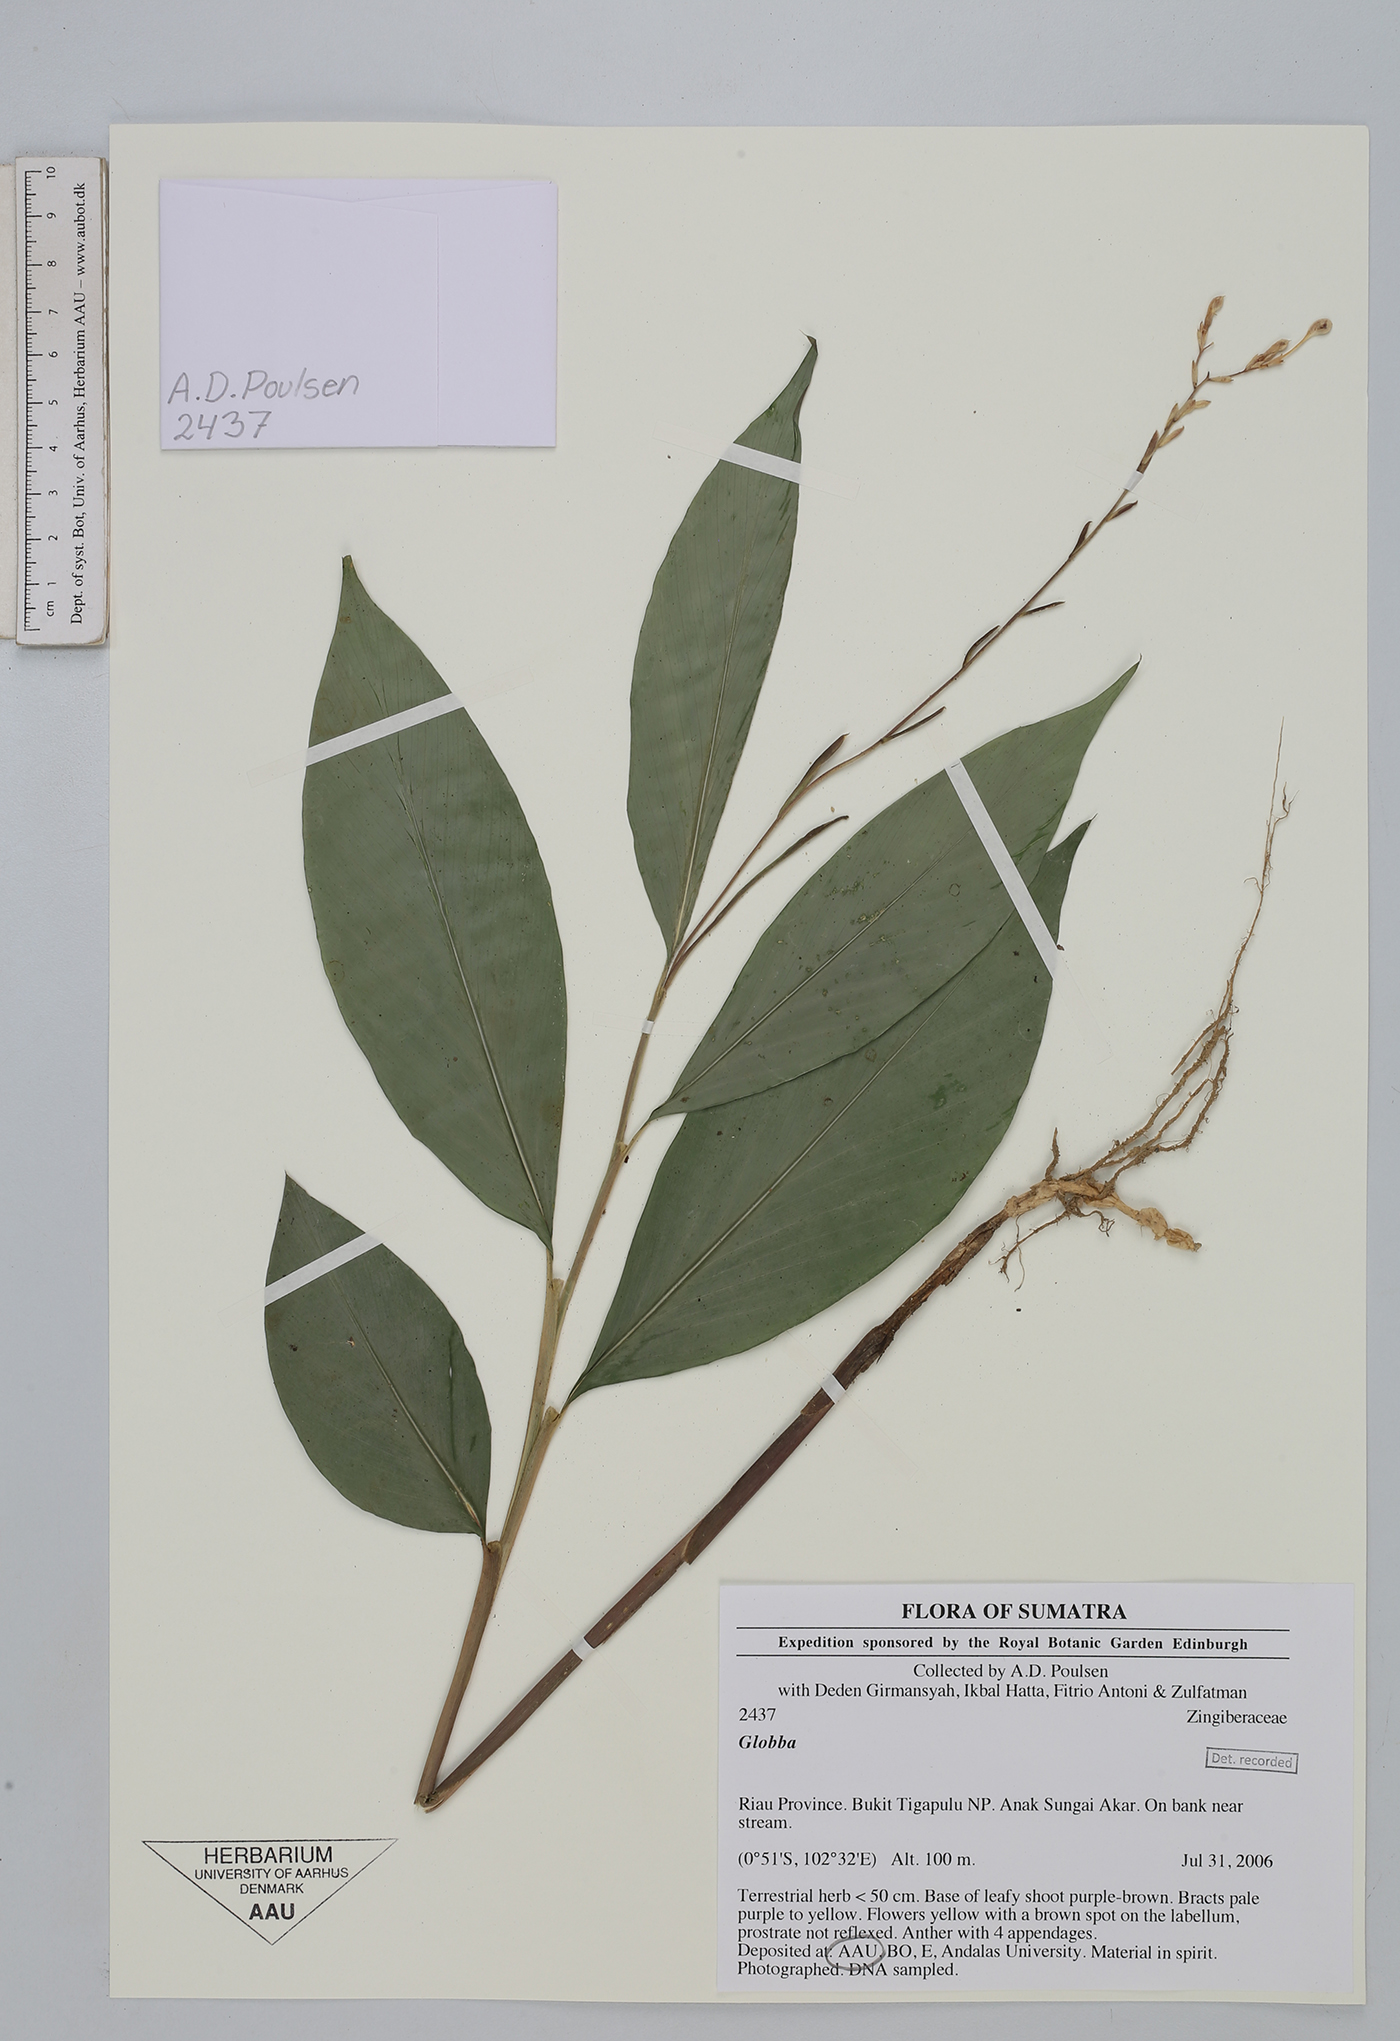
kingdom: Plantae
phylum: Tracheophyta
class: Liliopsida
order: Zingiberales
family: Zingiberaceae
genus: Globba
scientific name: Globba
